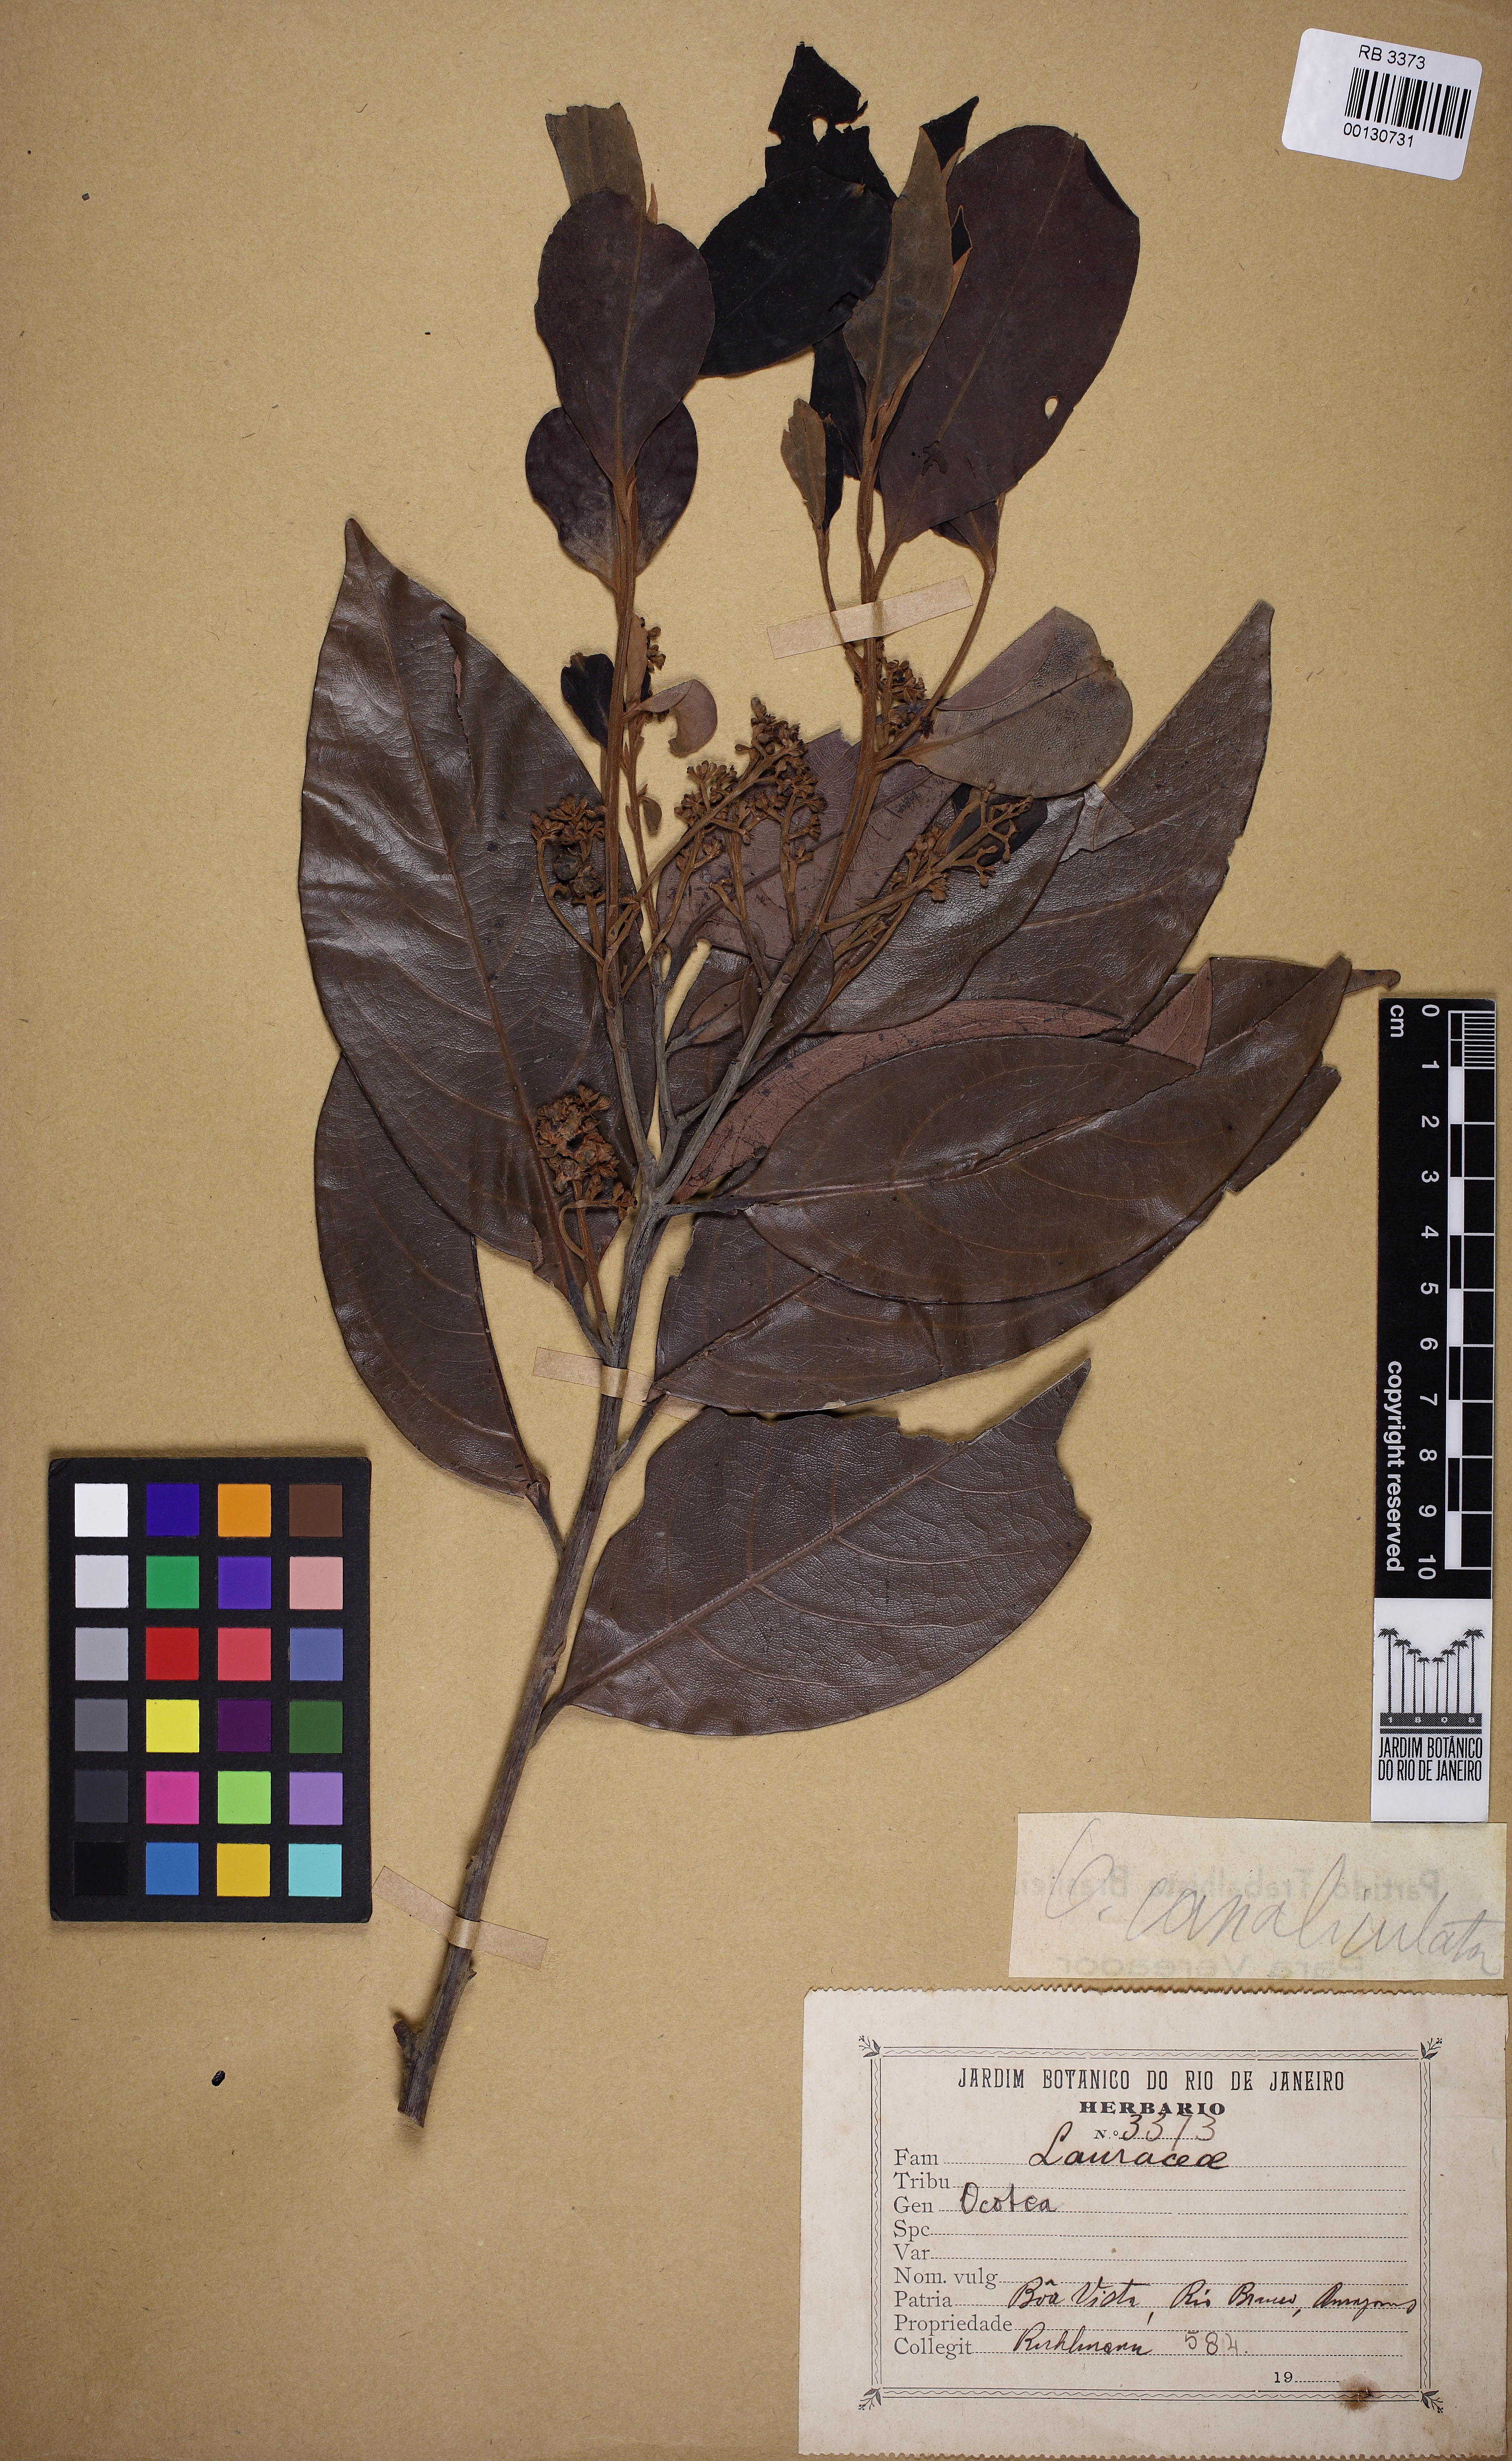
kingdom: Plantae
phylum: Tracheophyta
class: Magnoliopsida
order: Laurales
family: Lauraceae
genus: Ocotea
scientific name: Ocotea canaliculata
